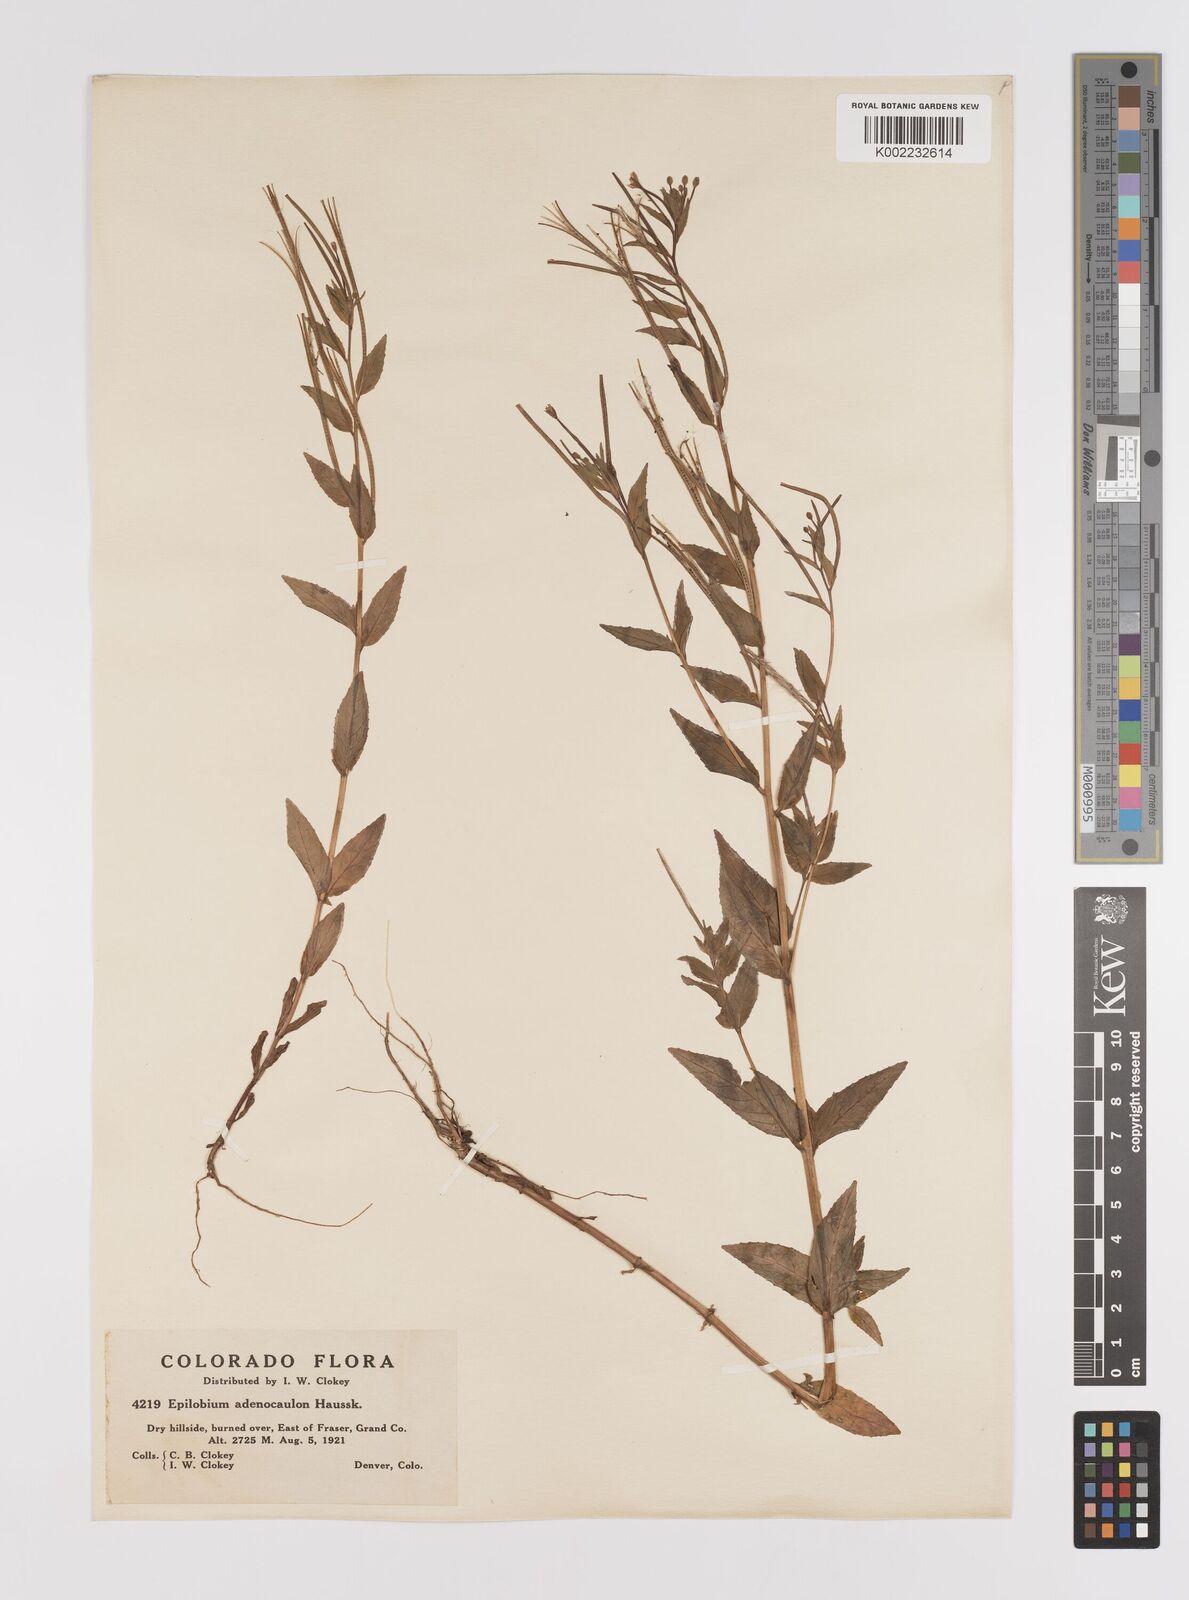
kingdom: Plantae
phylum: Tracheophyta
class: Magnoliopsida
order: Myrtales
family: Onagraceae
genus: Epilobium
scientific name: Epilobium ciliatum
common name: American willowherb
